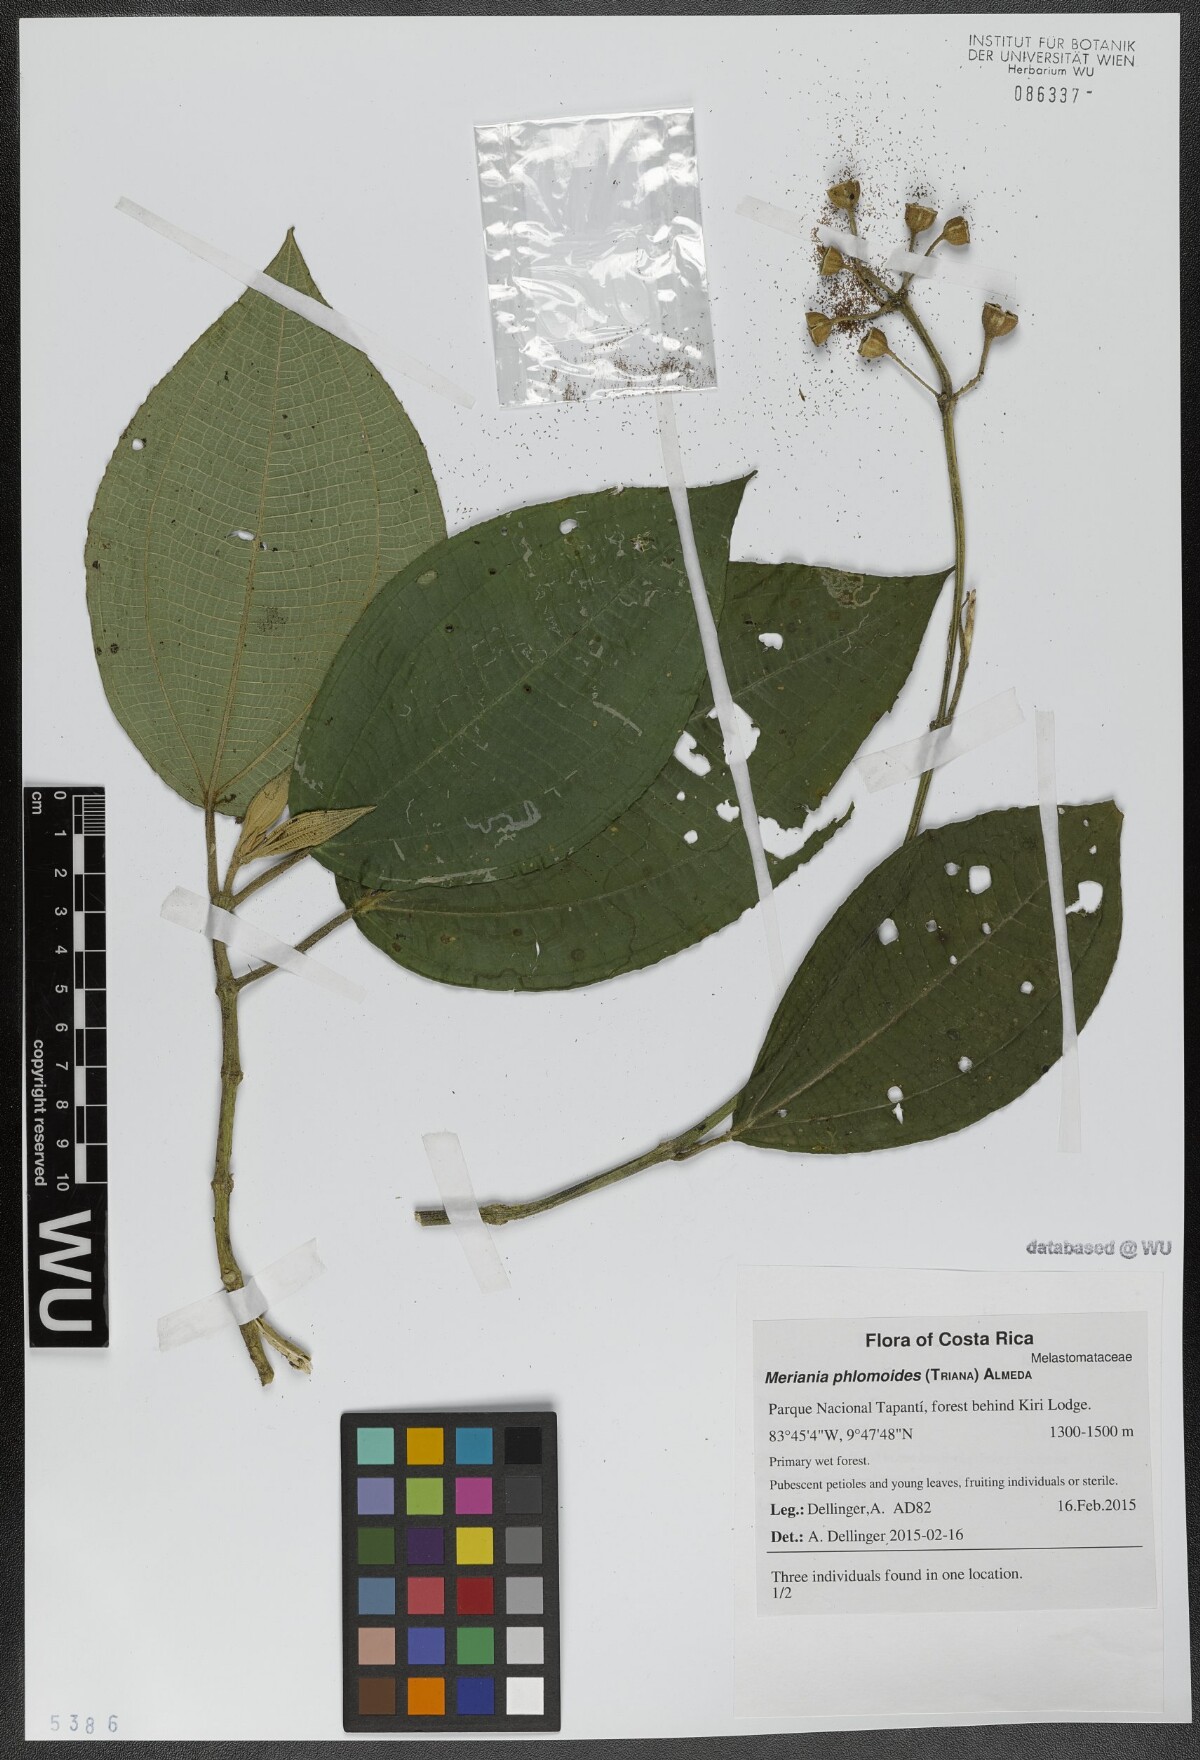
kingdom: Plantae
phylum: Tracheophyta
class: Magnoliopsida
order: Myrtales
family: Melastomataceae
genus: Meriania
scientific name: Meriania phlomoides
